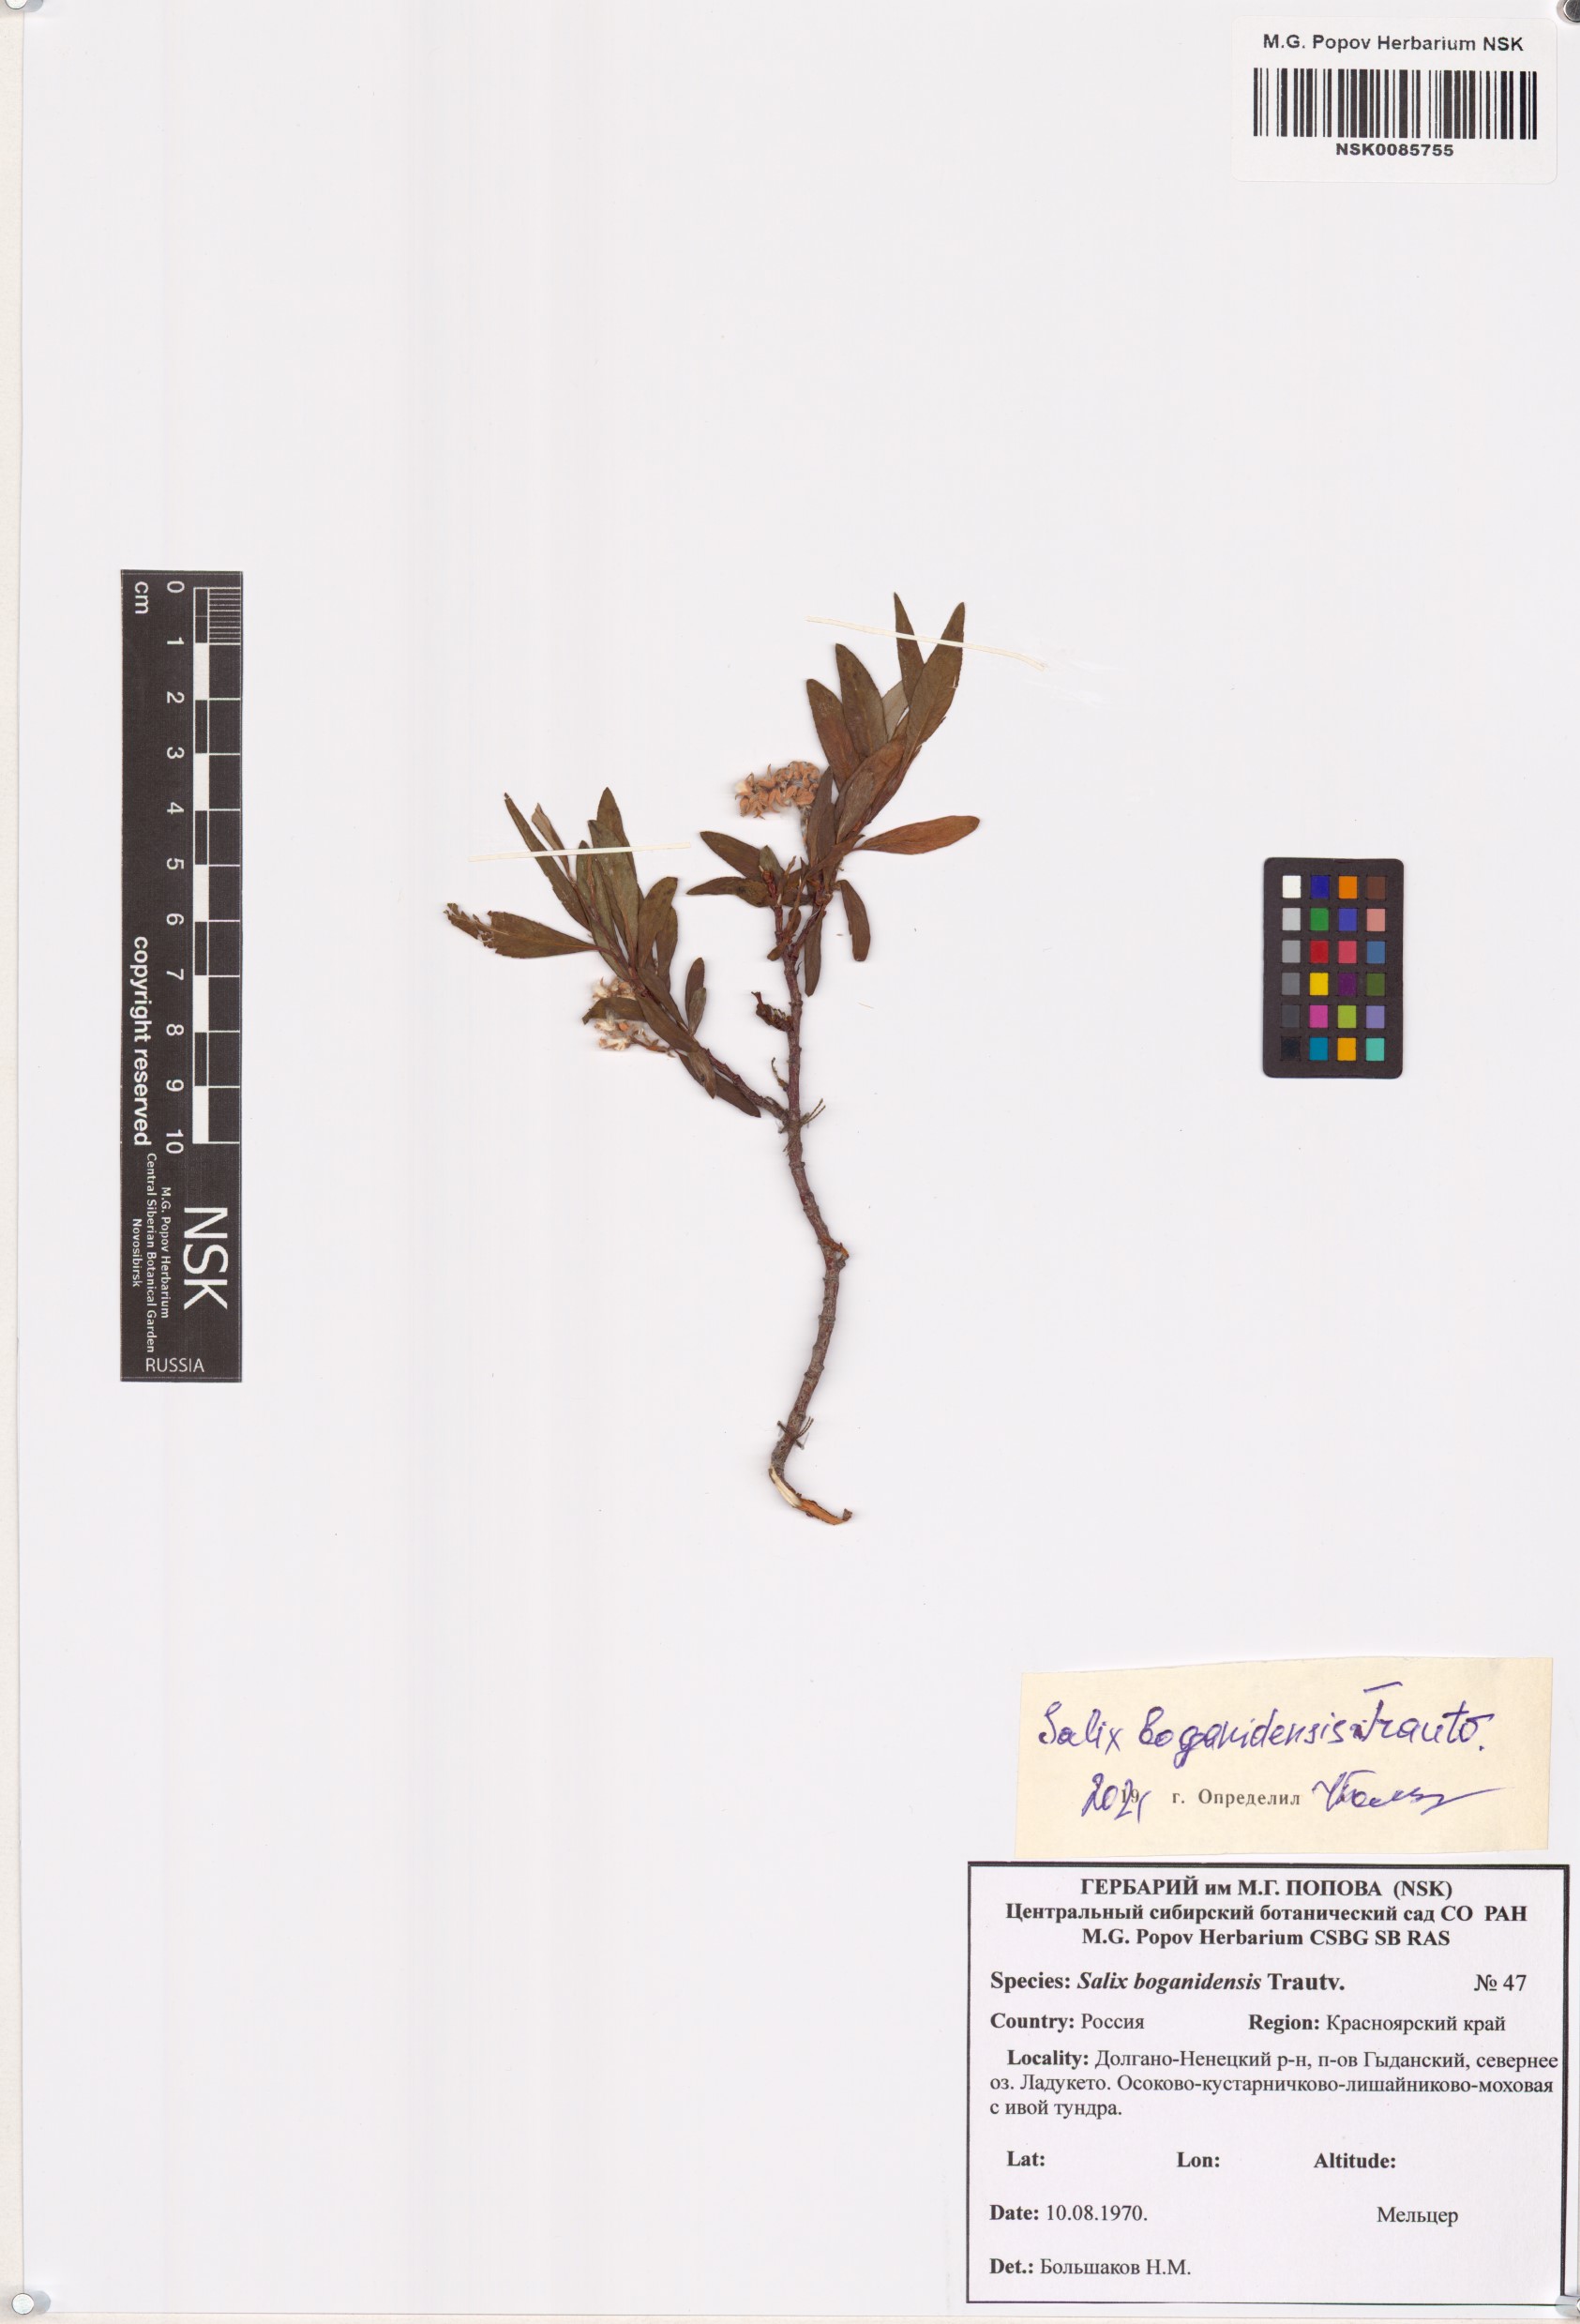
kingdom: Plantae
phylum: Tracheophyta
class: Magnoliopsida
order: Malpighiales
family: Salicaceae
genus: Salix
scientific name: Salix boganidensis
